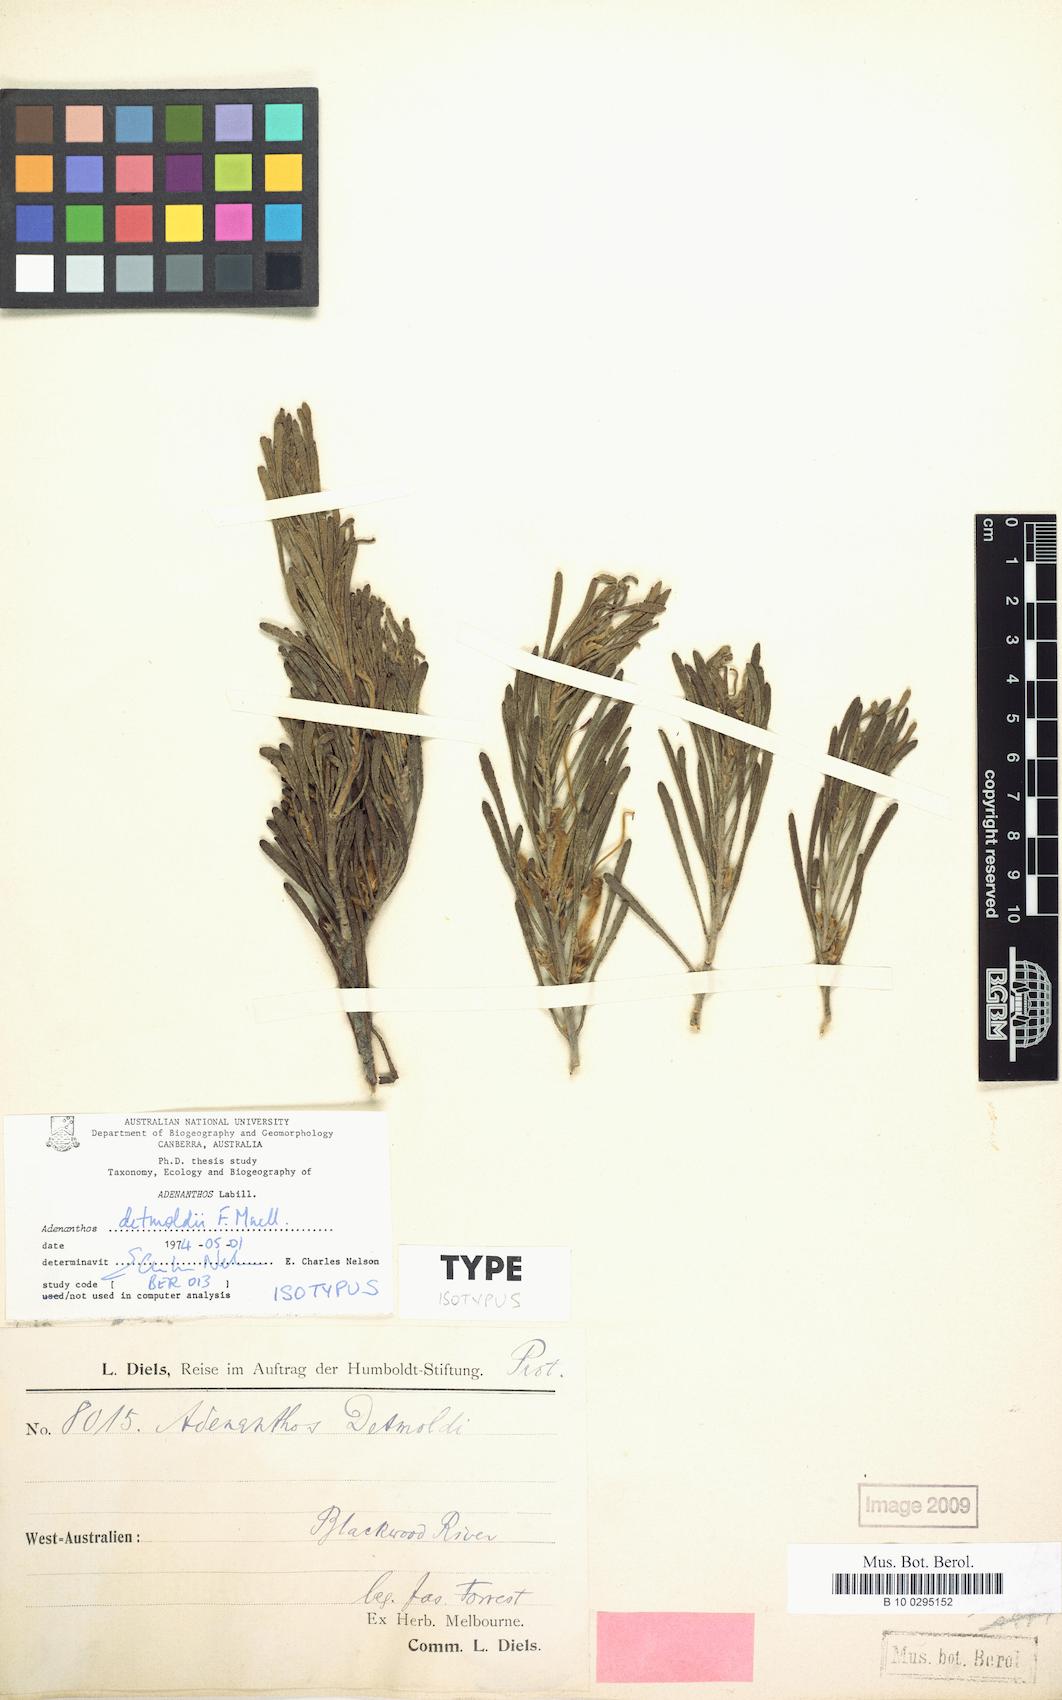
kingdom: Plantae
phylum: Tracheophyta
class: Magnoliopsida
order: Proteales
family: Proteaceae
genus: Adenanthos
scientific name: Adenanthos detmoldii
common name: Scott river jugflower
